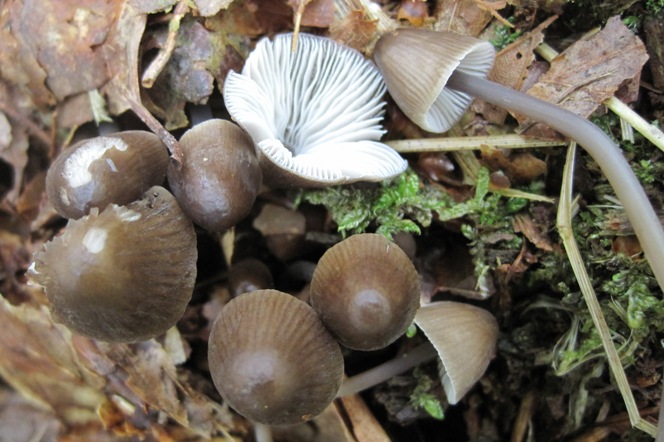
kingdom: Fungi
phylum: Basidiomycota
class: Agaricomycetes
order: Agaricales
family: Mycenaceae
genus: Mycena
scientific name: Mycena silvae-nigrae
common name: tidlig huesvamp
